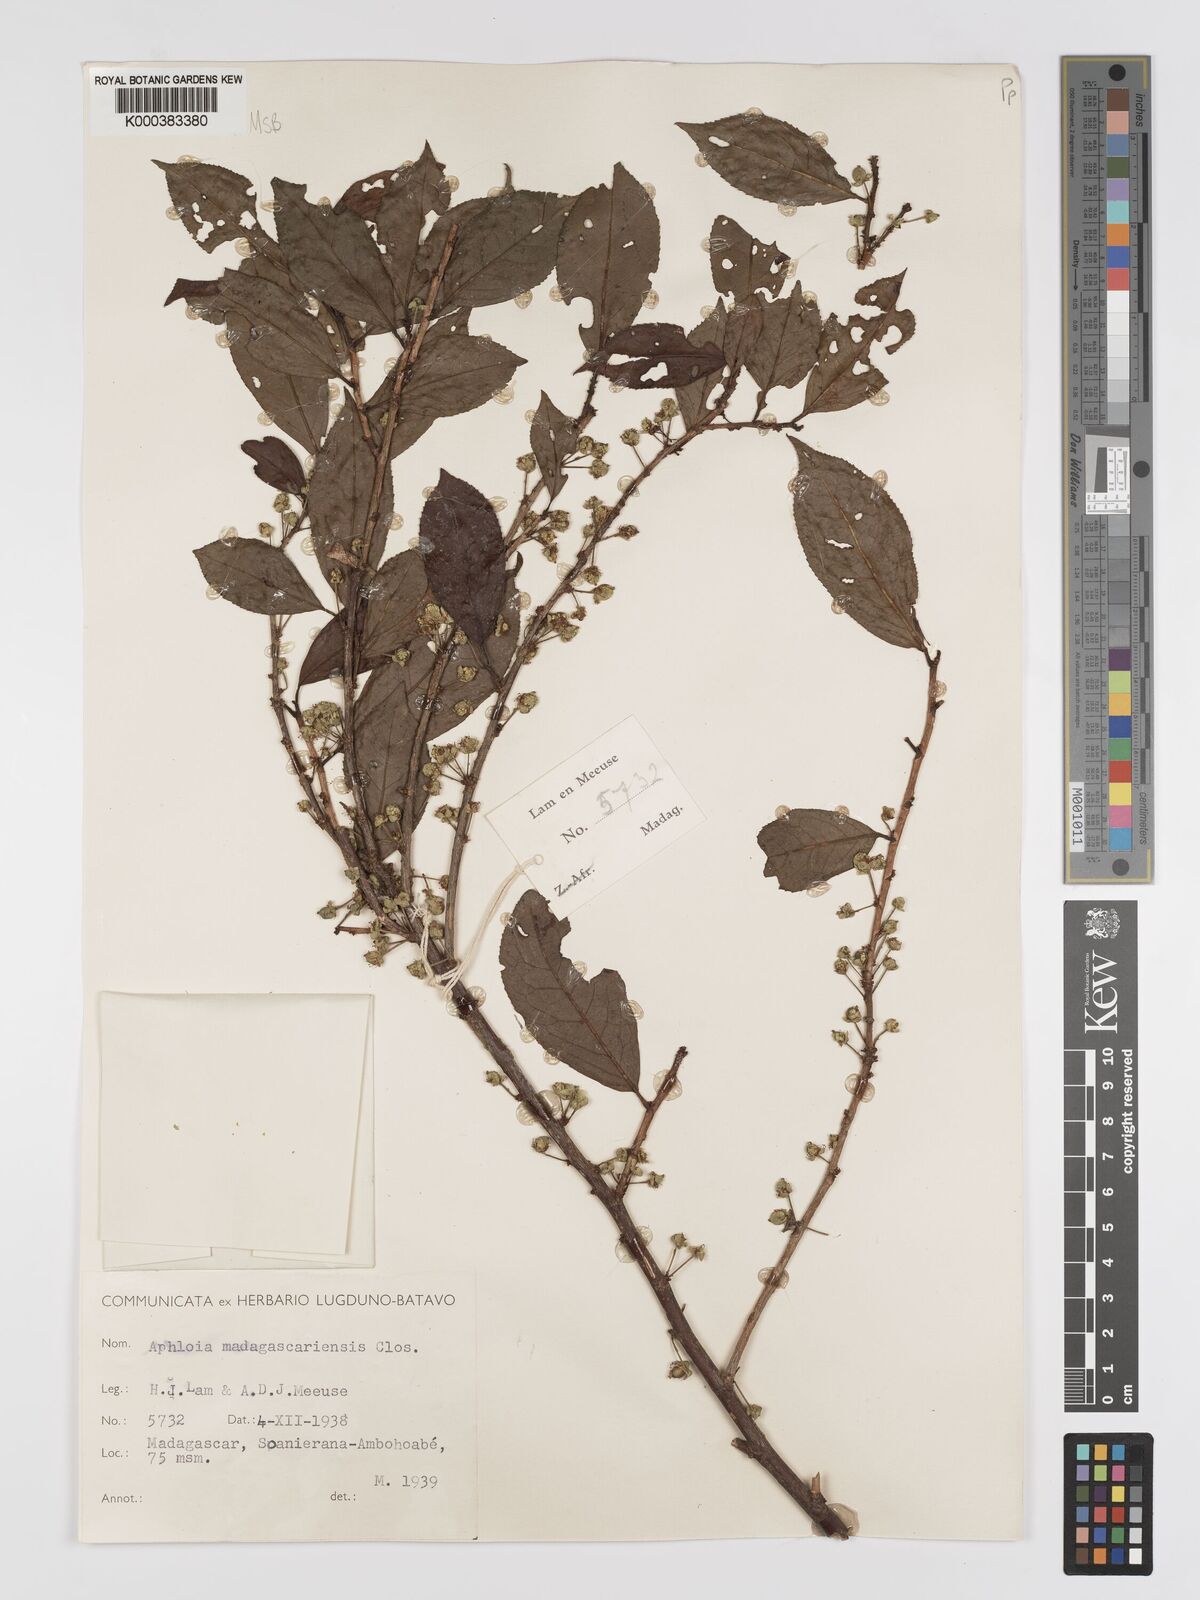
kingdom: Plantae
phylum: Tracheophyta
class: Magnoliopsida
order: Crossosomatales
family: Aphloiaceae
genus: Aphloia
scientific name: Aphloia theiformis
